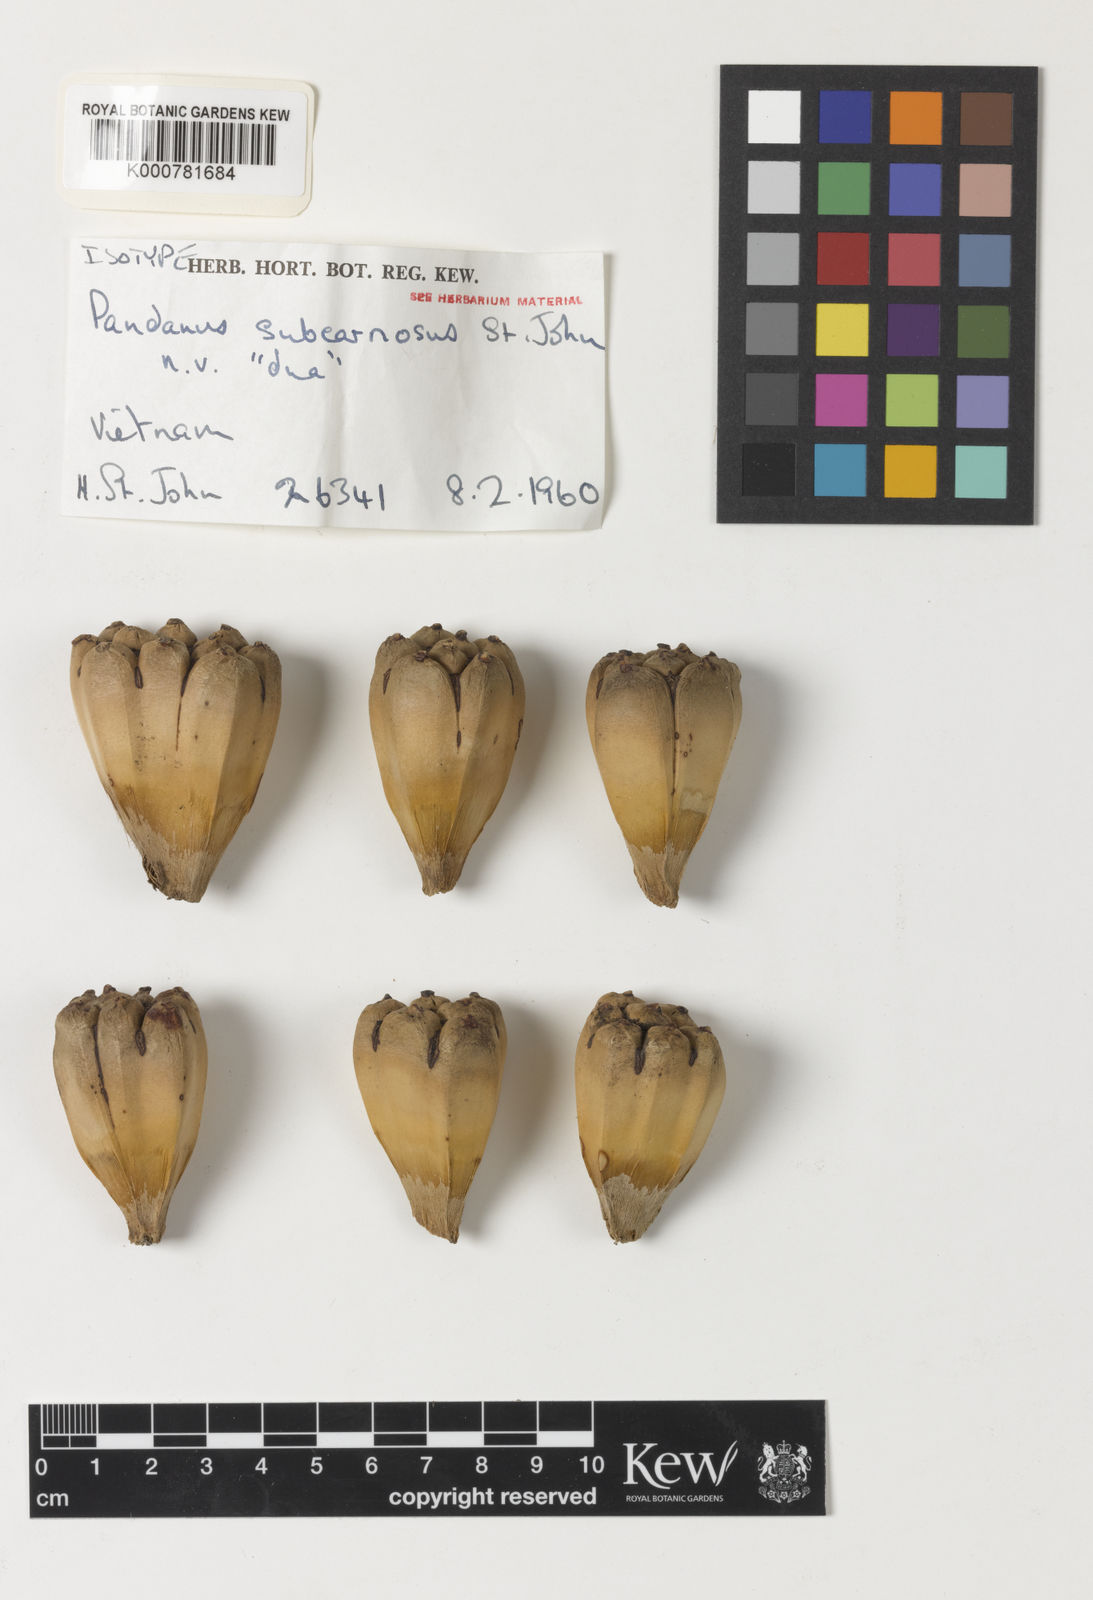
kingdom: Plantae
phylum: Tracheophyta
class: Liliopsida
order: Pandanales
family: Pandanaceae
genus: Pandanus
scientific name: Pandanus odorifer
